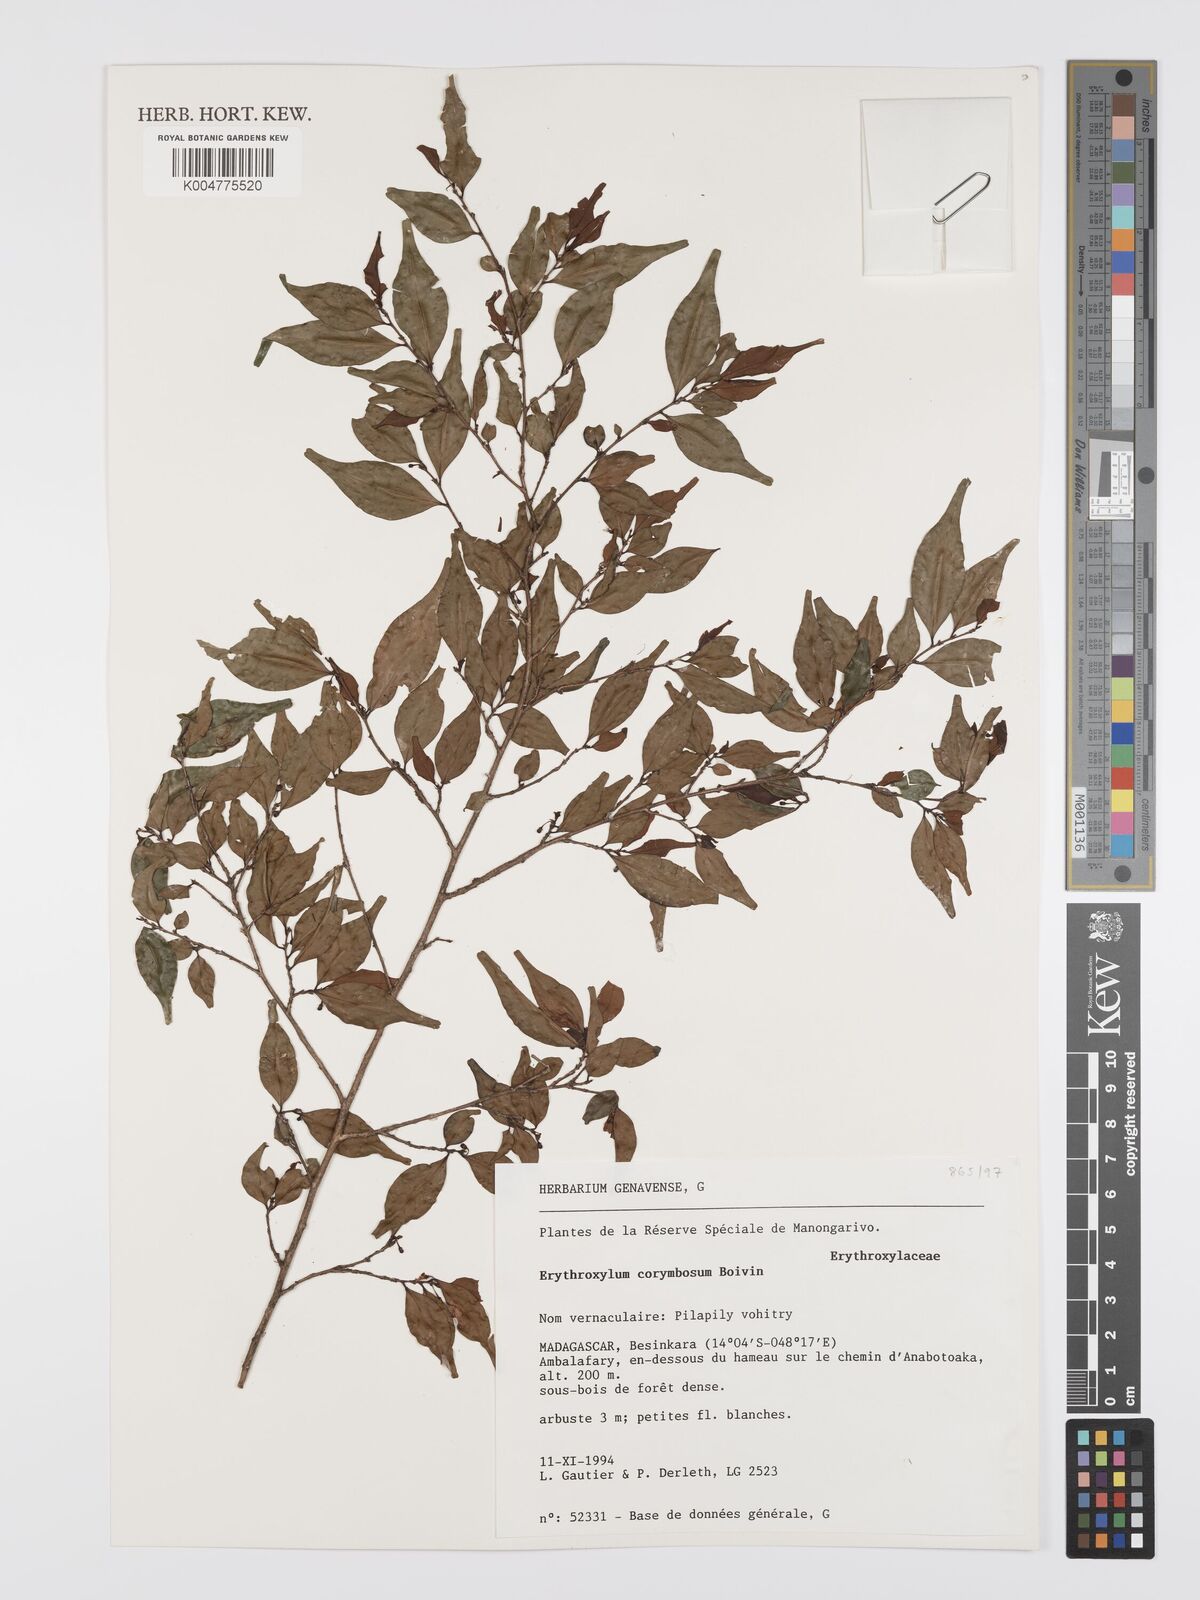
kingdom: Plantae
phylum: Tracheophyta
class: Magnoliopsida
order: Malpighiales
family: Erythroxylaceae
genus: Erythroxylum
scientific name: Erythroxylum corymbosum
